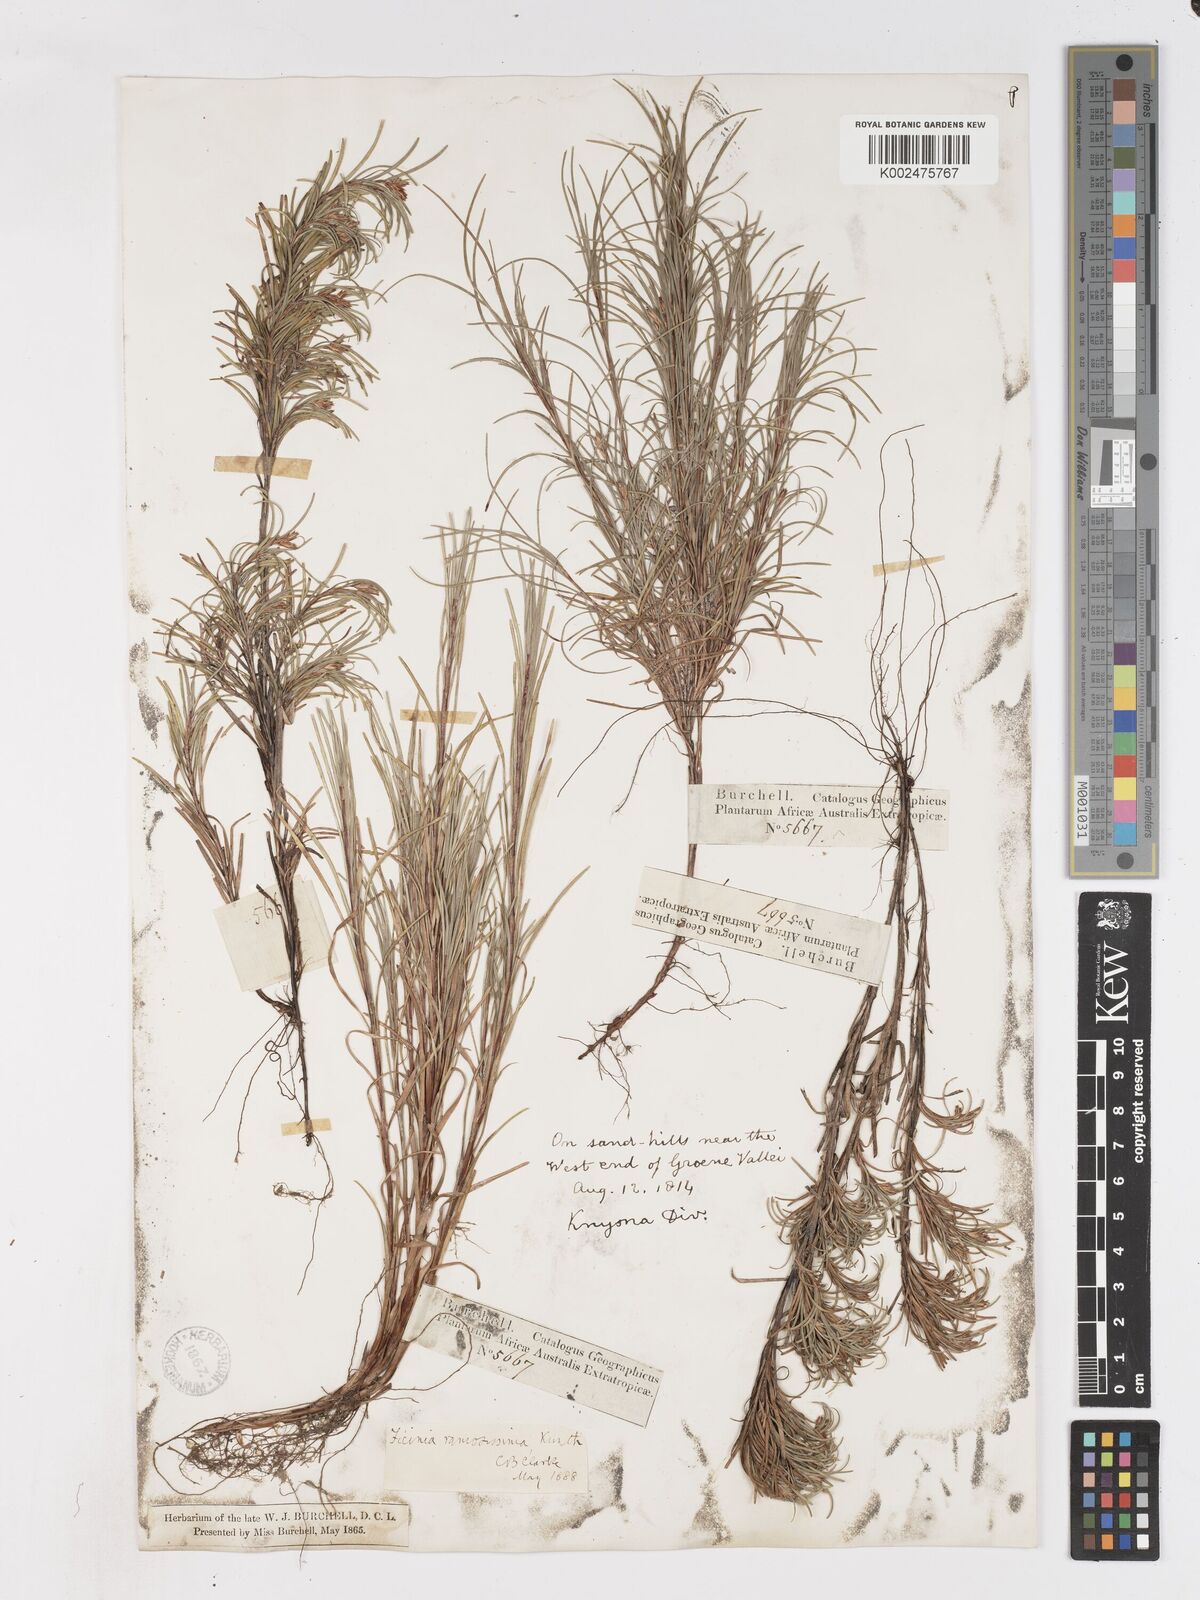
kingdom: Plantae
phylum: Tracheophyta
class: Liliopsida
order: Poales
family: Cyperaceae
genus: Ficinia
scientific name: Ficinia ramosissima
